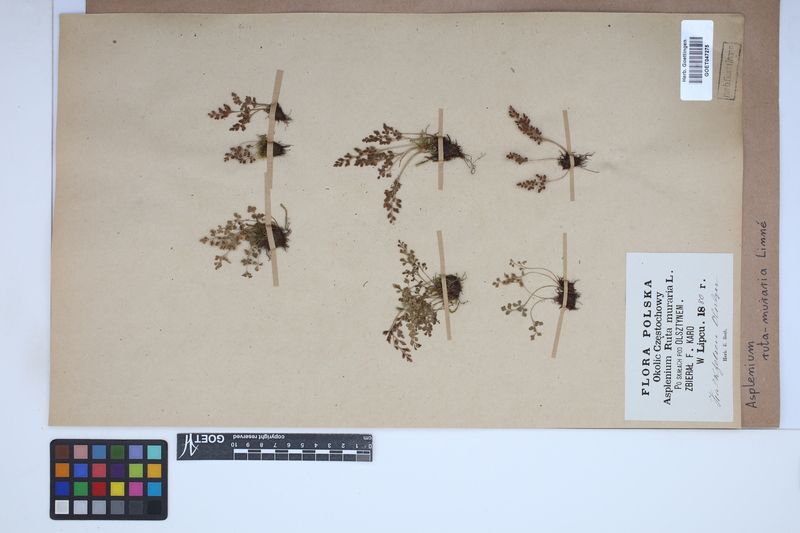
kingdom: Plantae
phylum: Tracheophyta
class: Polypodiopsida
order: Polypodiales
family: Aspleniaceae
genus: Asplenium
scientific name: Asplenium ruta-muraria
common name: Wall-rue
